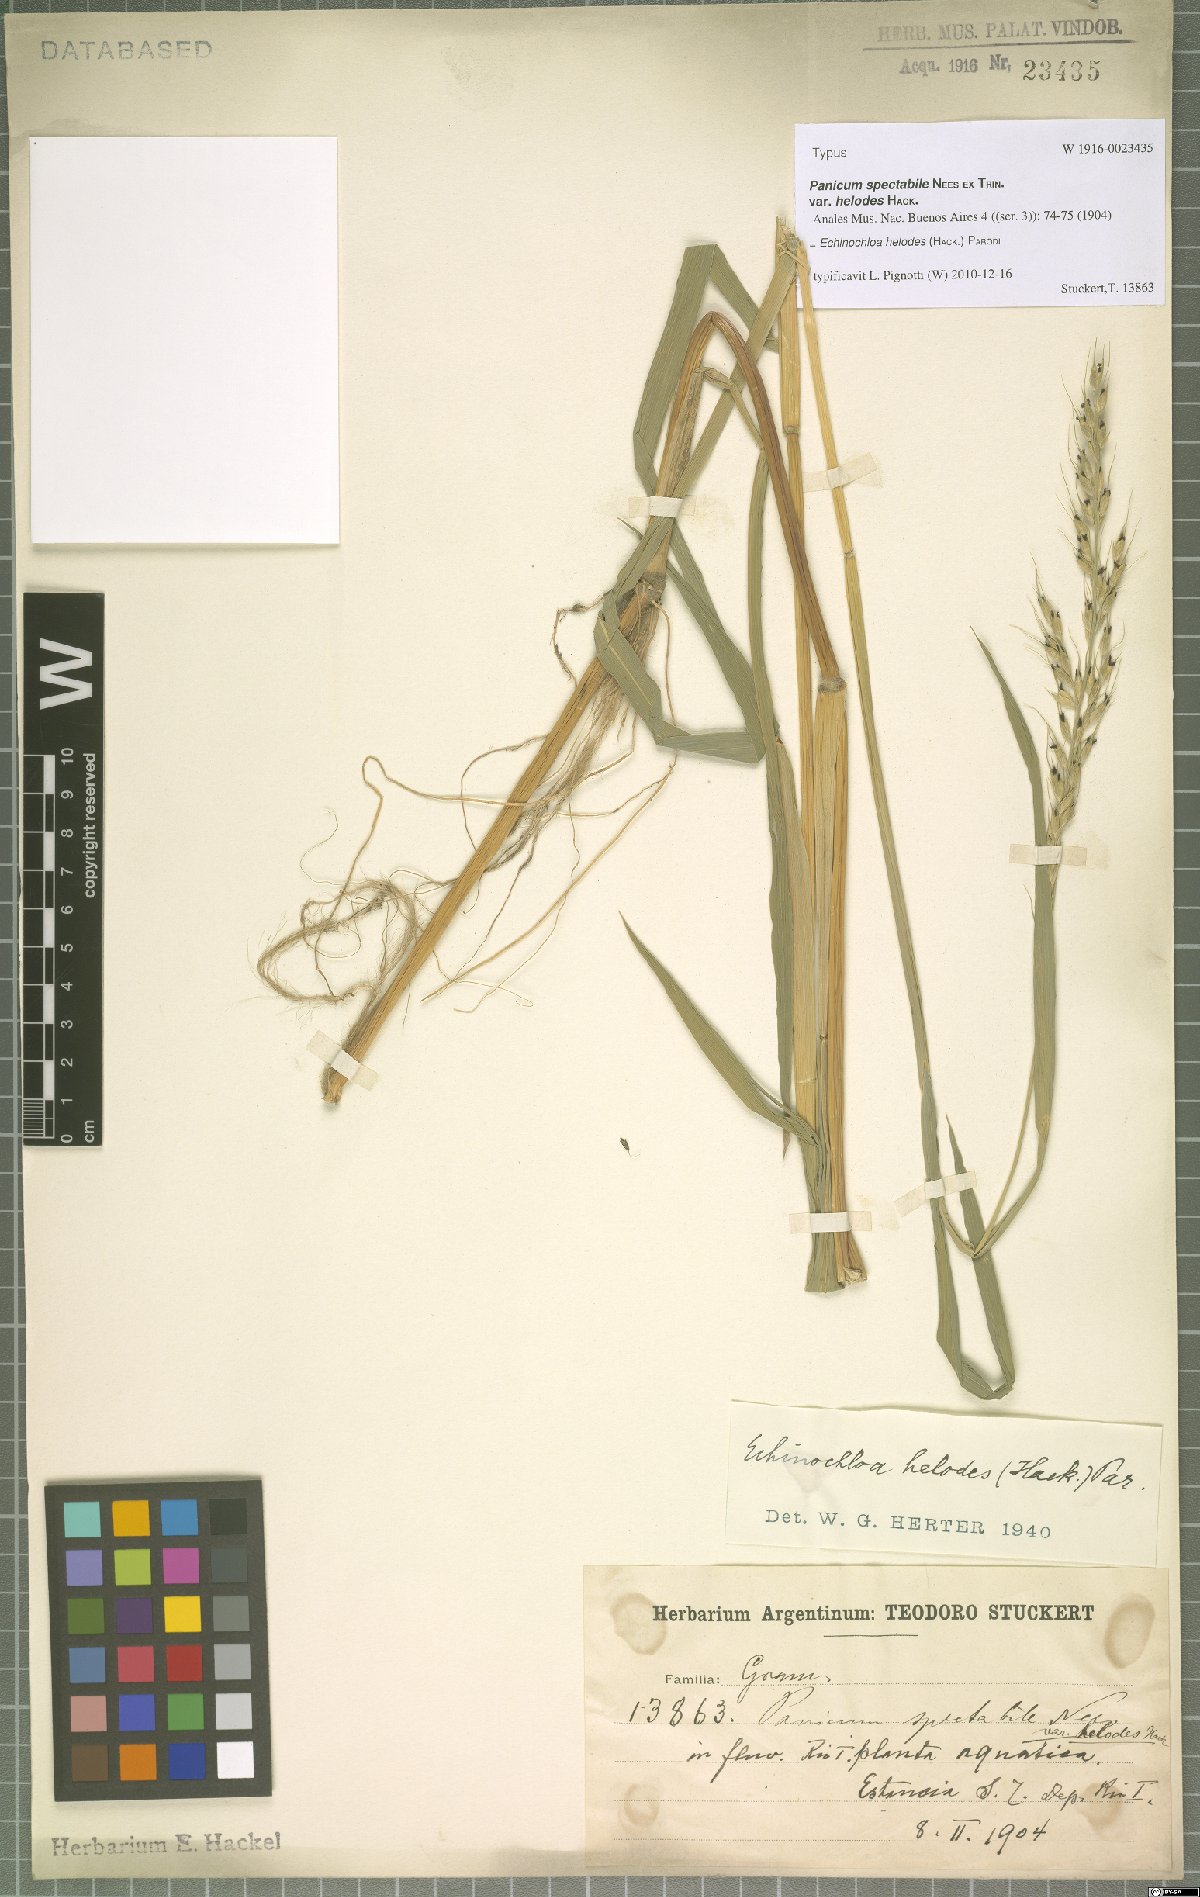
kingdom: Plantae
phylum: Tracheophyta
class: Liliopsida
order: Poales
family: Poaceae
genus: Echinochloa
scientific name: Echinochloa helodes
